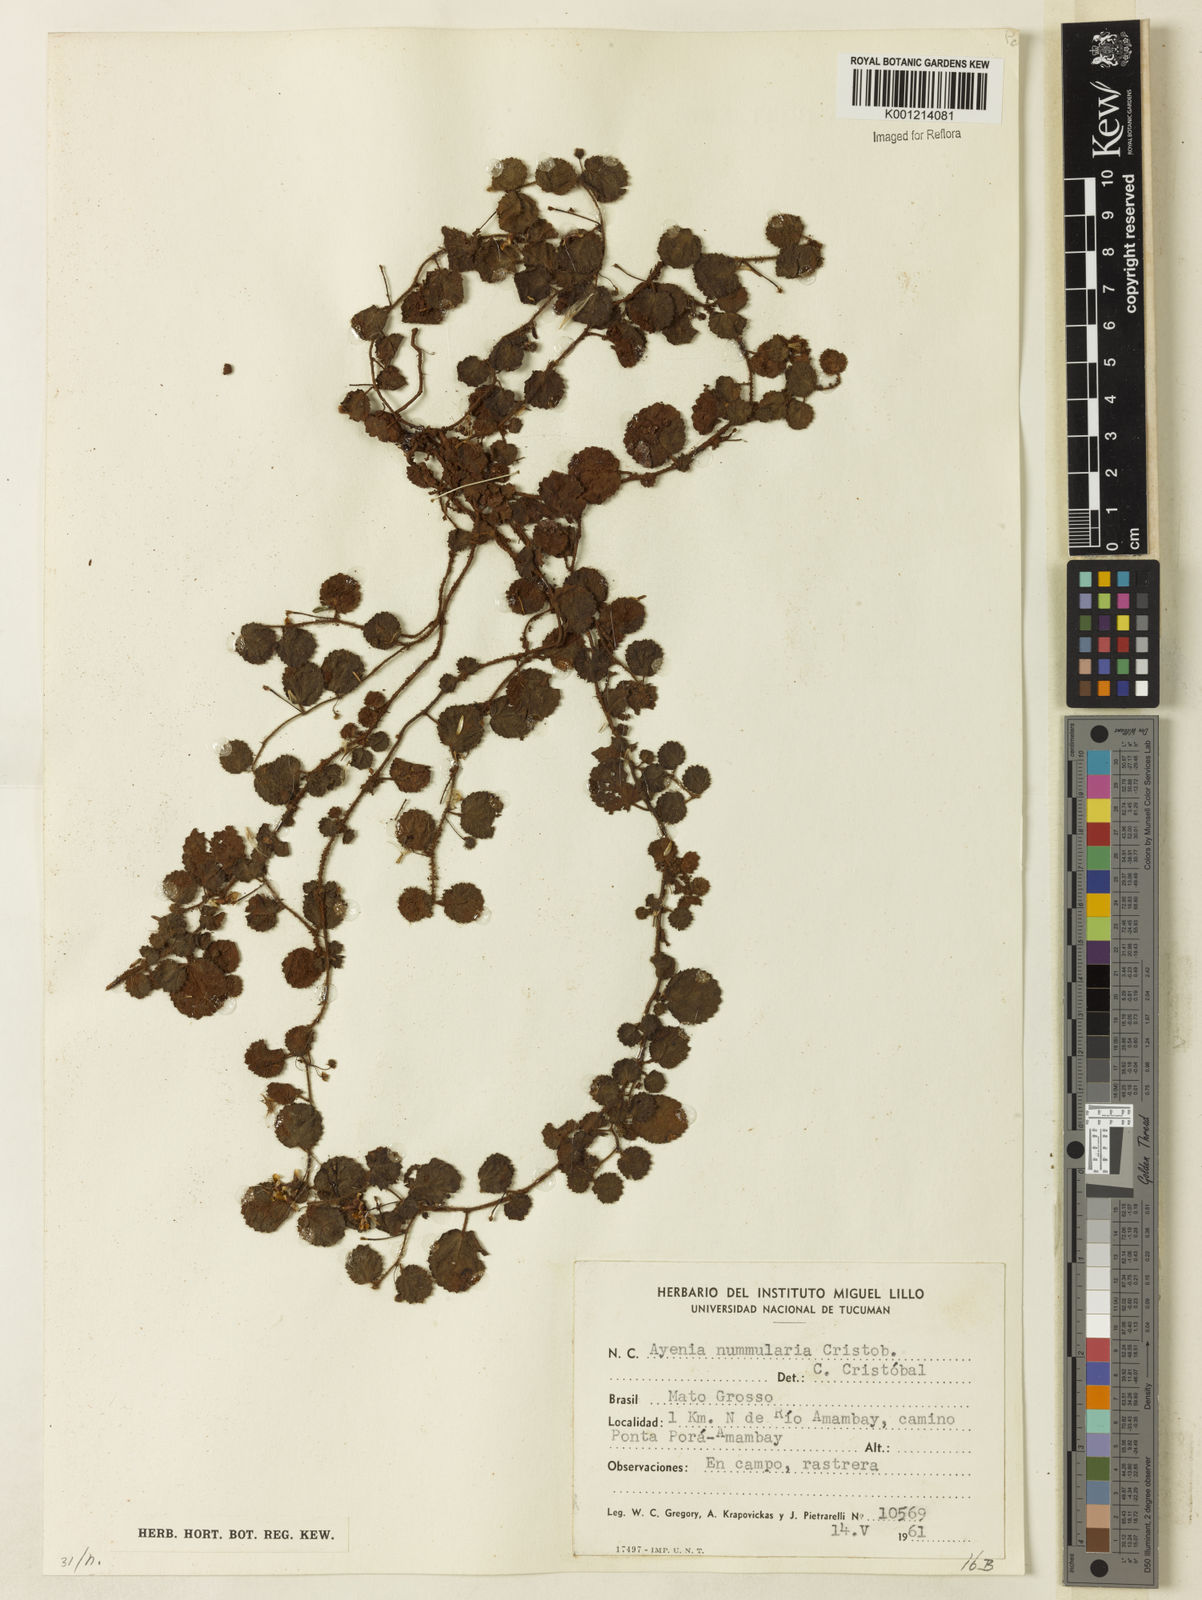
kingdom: Plantae
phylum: Tracheophyta
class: Magnoliopsida
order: Malvales
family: Malvaceae
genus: Ayenia
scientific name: Ayenia
